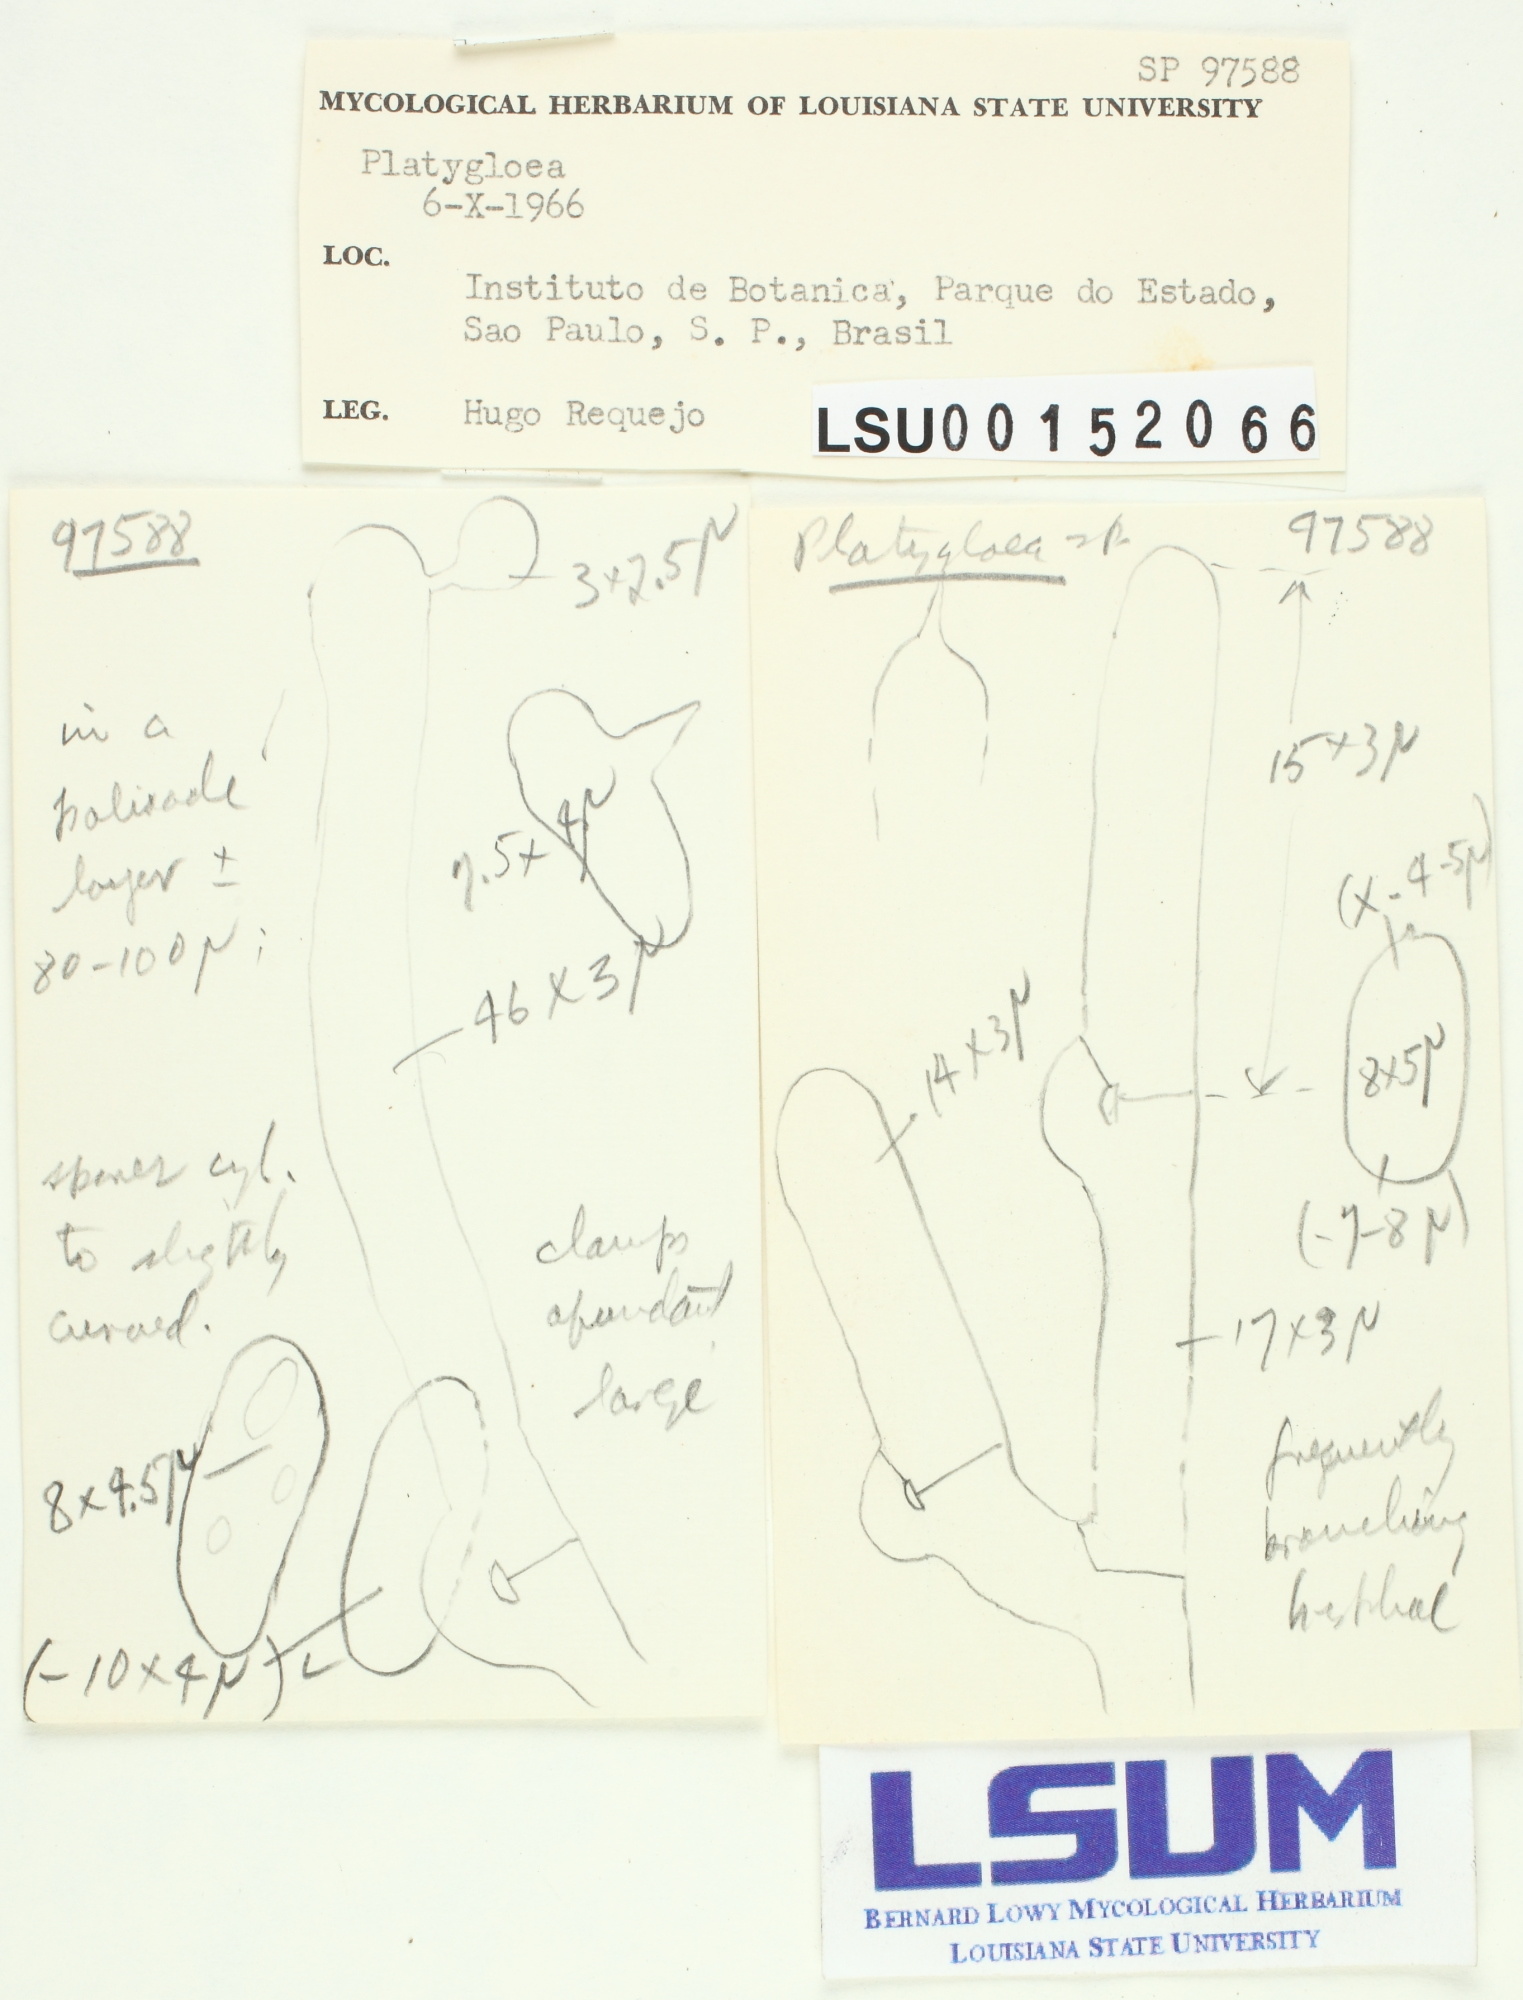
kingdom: Fungi
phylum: Basidiomycota
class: Pucciniomycetes
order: Platygloeales
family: Platygloeaceae
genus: Platygloea
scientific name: Platygloea
